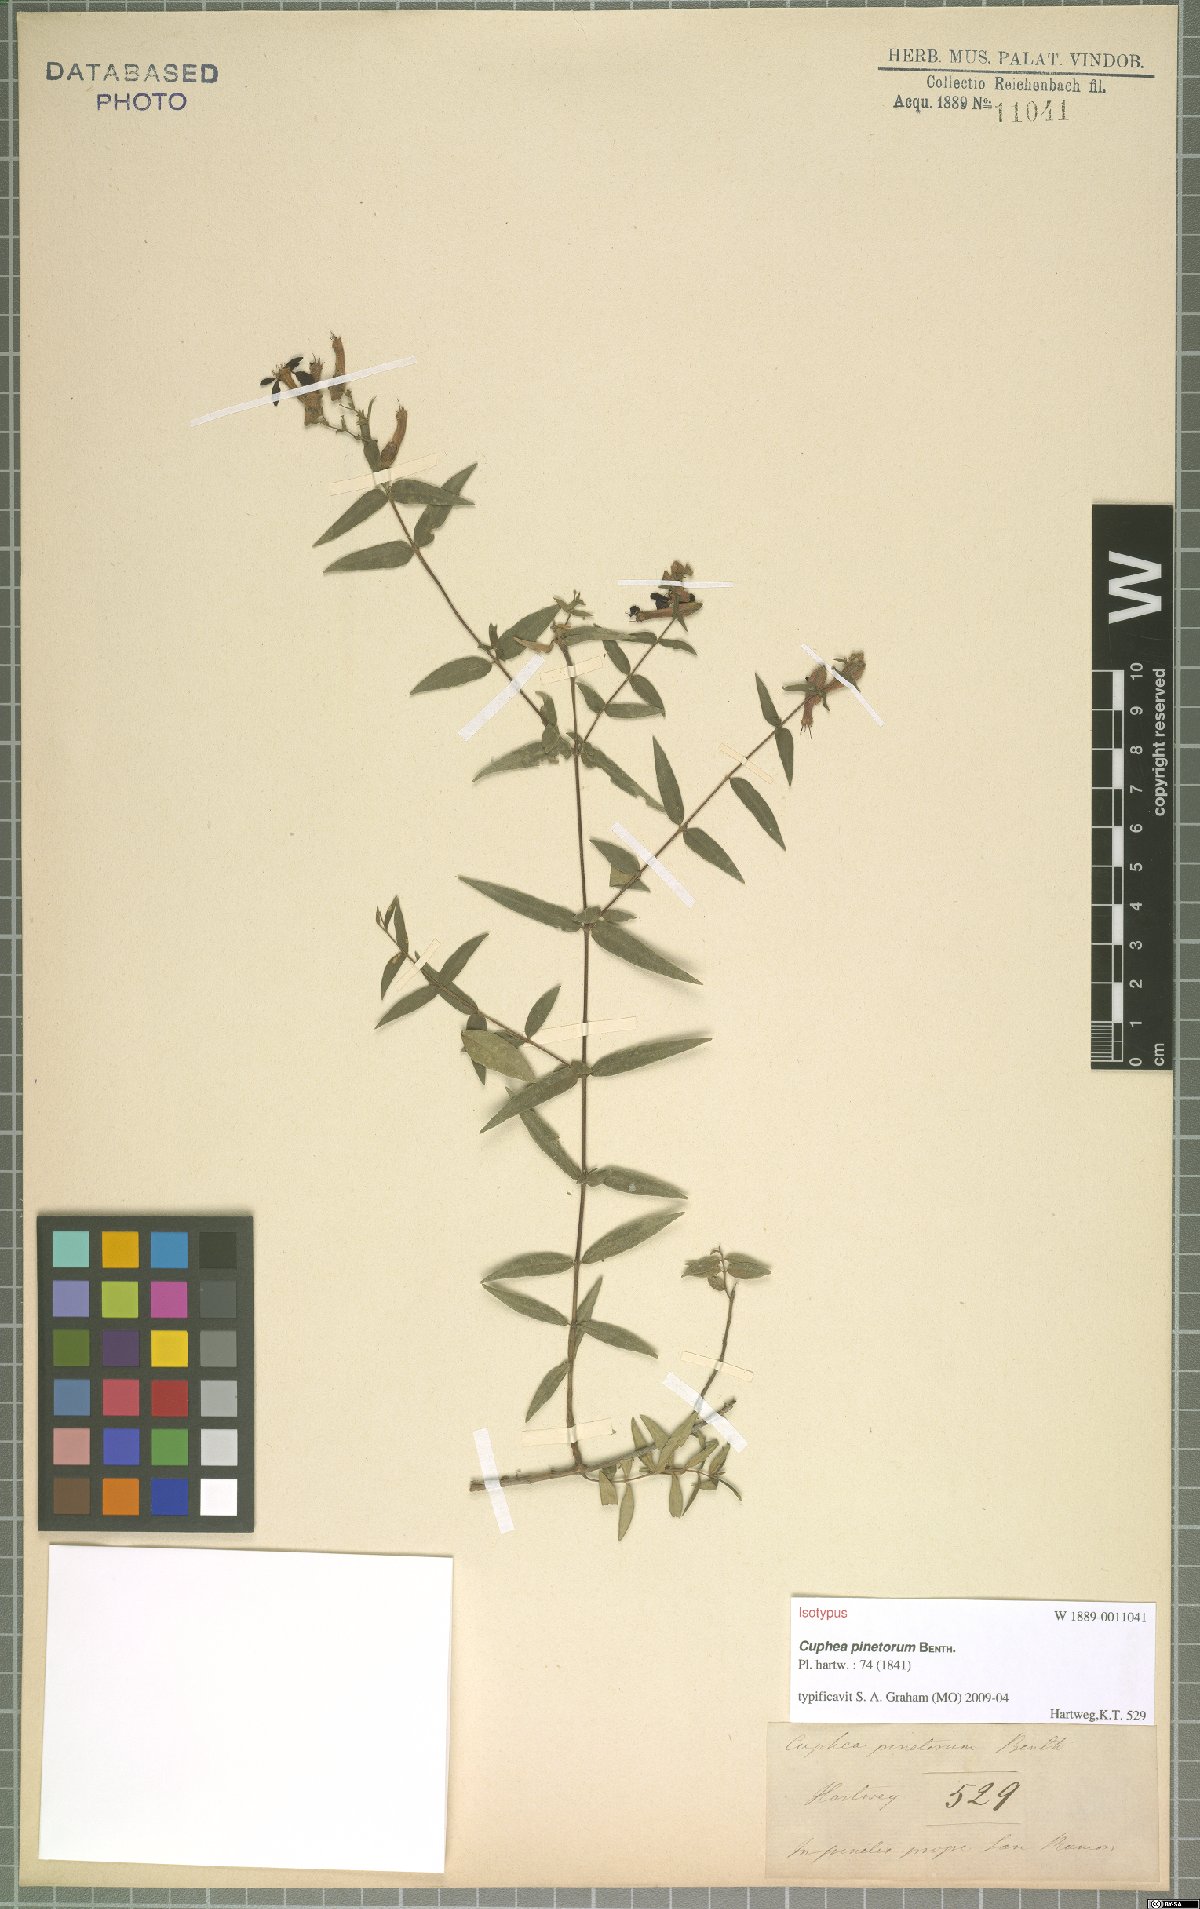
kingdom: Plantae
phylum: Tracheophyta
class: Magnoliopsida
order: Myrtales
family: Lythraceae
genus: Cuphea
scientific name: Cuphea pinetorum
